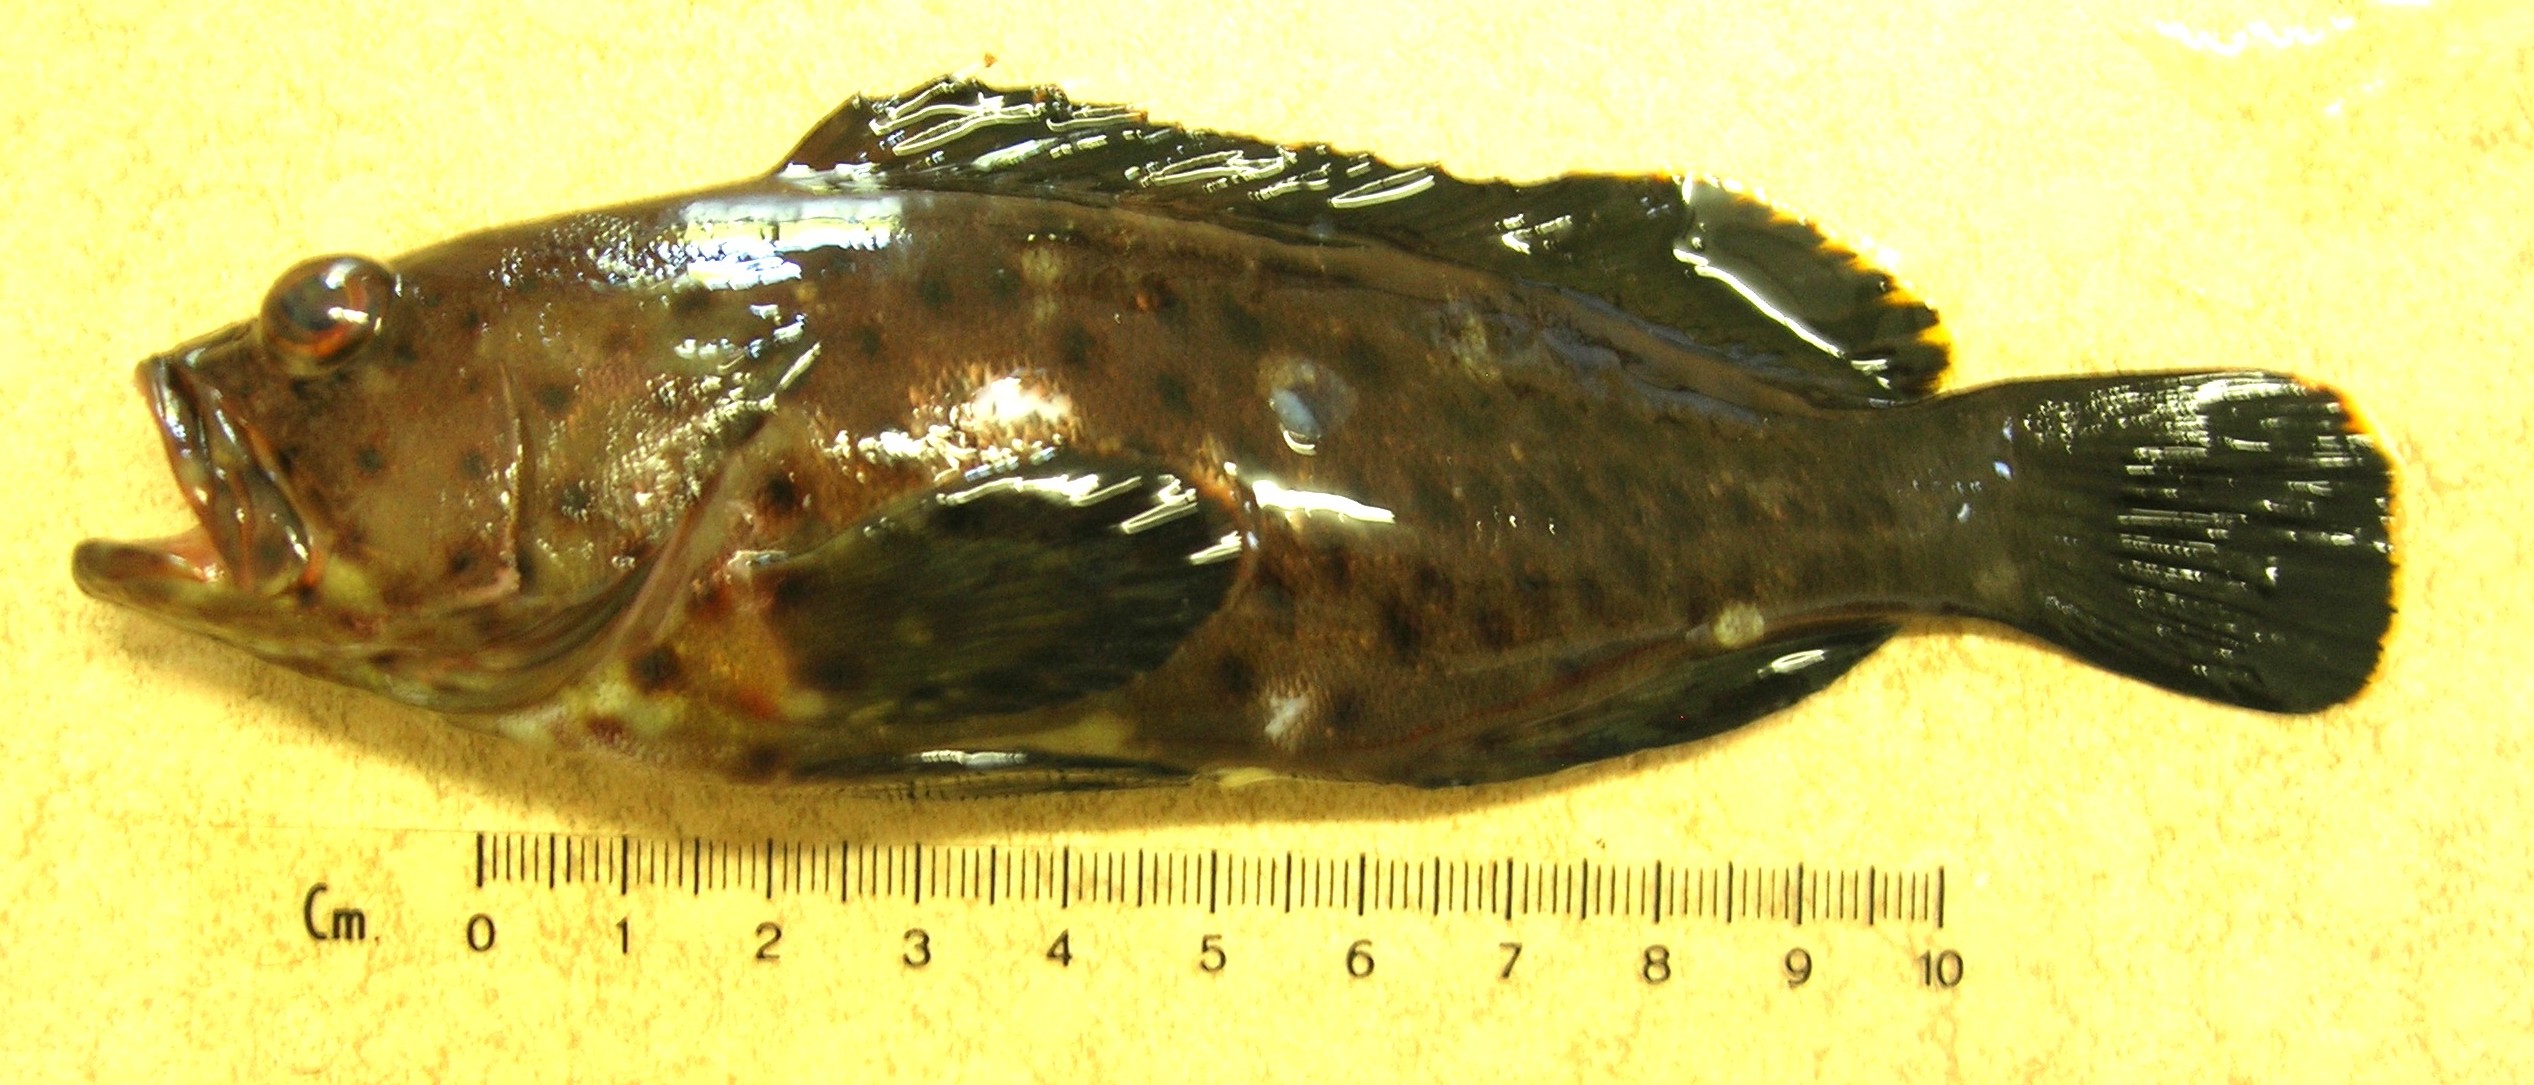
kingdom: Animalia
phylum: Chordata
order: Perciformes
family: Serranidae
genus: Epinephelus
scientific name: Epinephelus longispinis
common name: Longspine grouper
